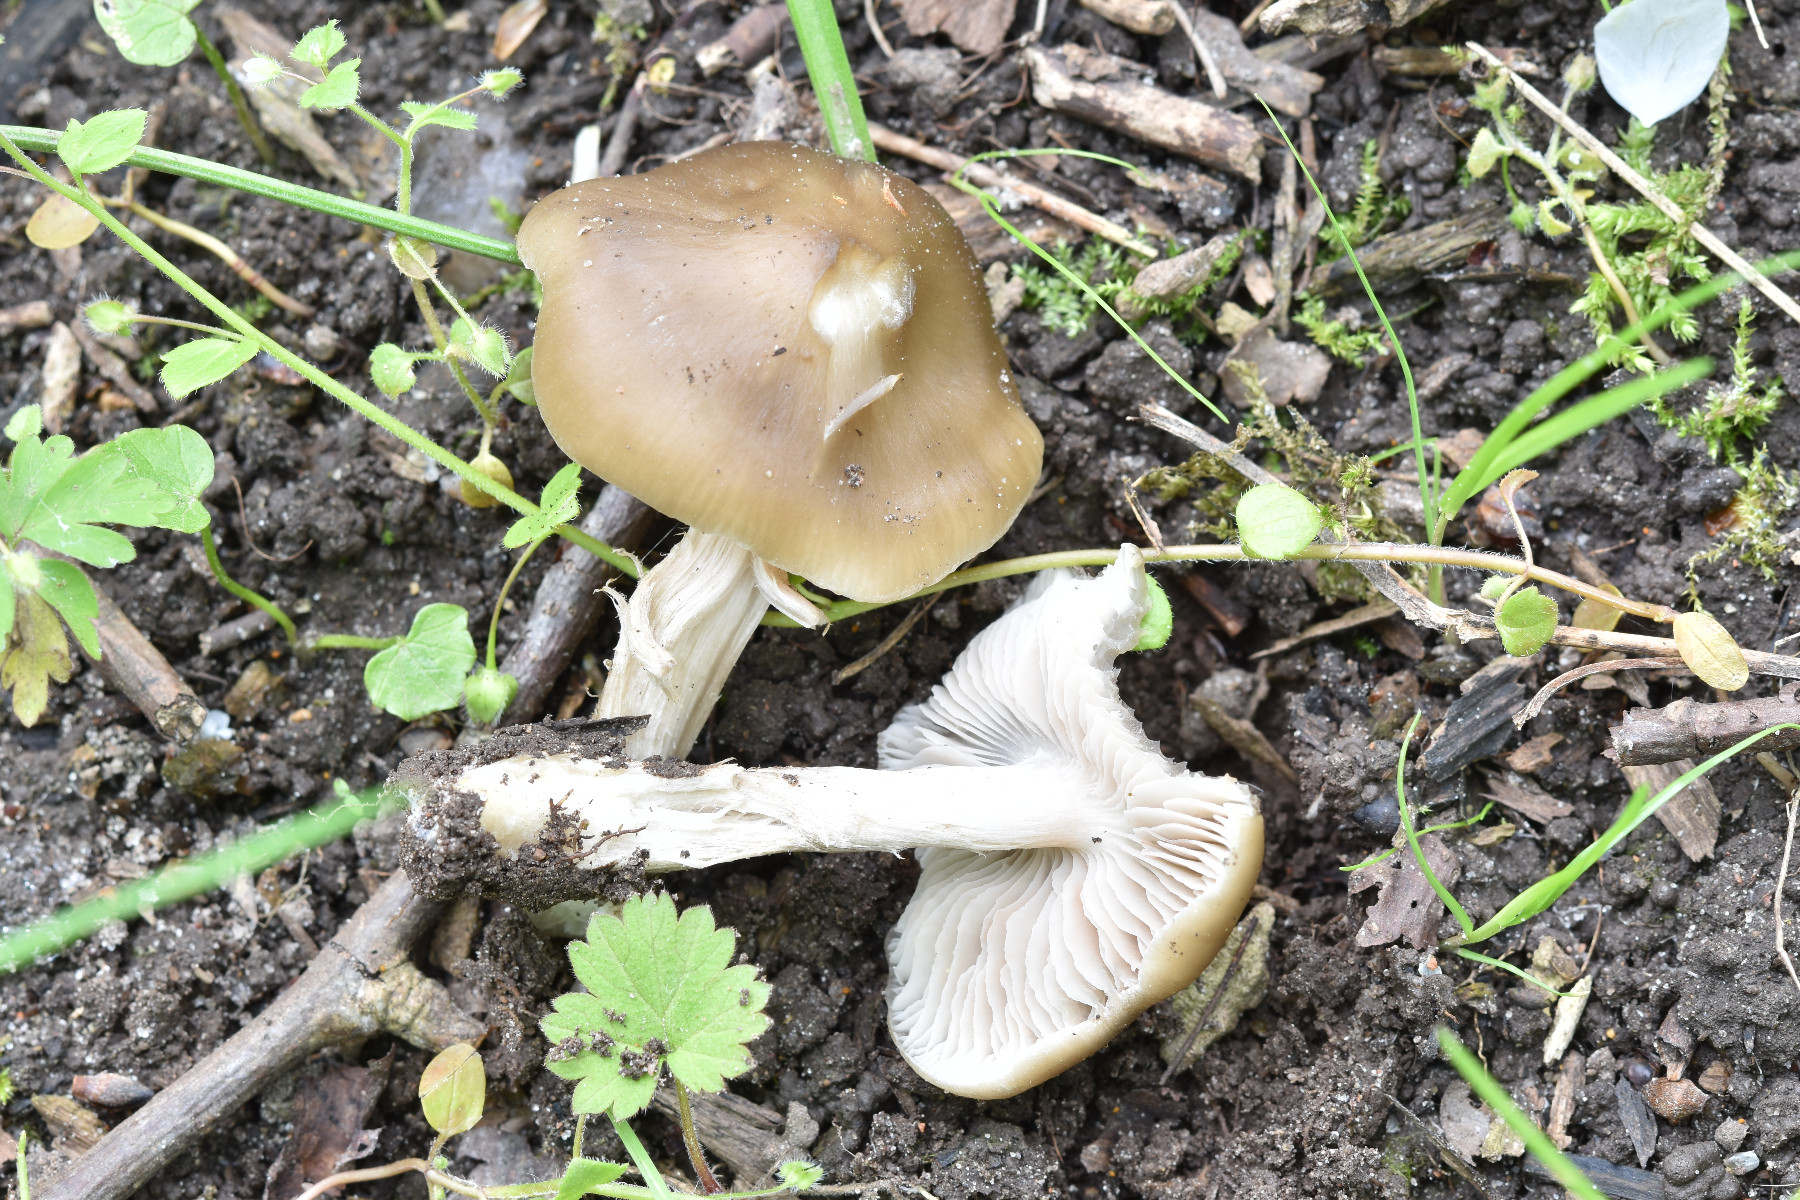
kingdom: Fungi
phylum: Basidiomycota
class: Agaricomycetes
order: Agaricales
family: Entolomataceae
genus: Entoloma
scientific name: Entoloma clypeatum
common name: flammet rødblad
